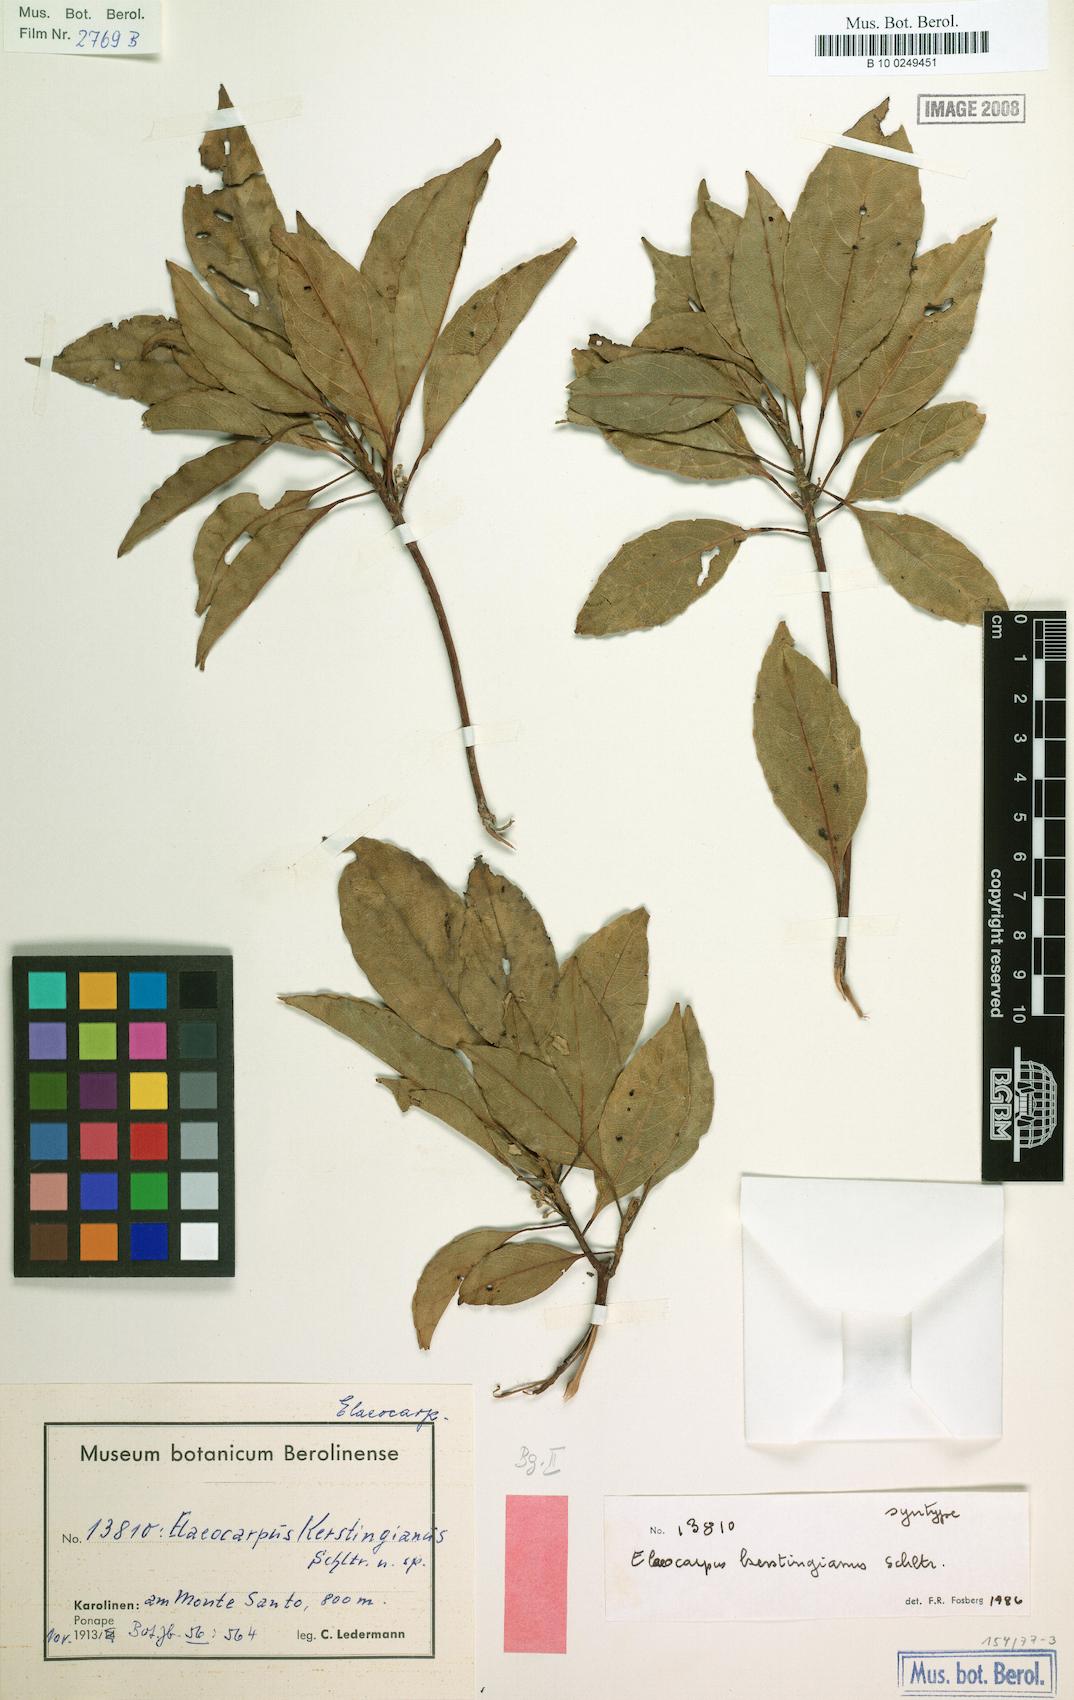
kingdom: Plantae
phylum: Tracheophyta
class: Magnoliopsida
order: Oxalidales
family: Elaeocarpaceae
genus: Elaeocarpus
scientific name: Elaeocarpus kerstingianus
